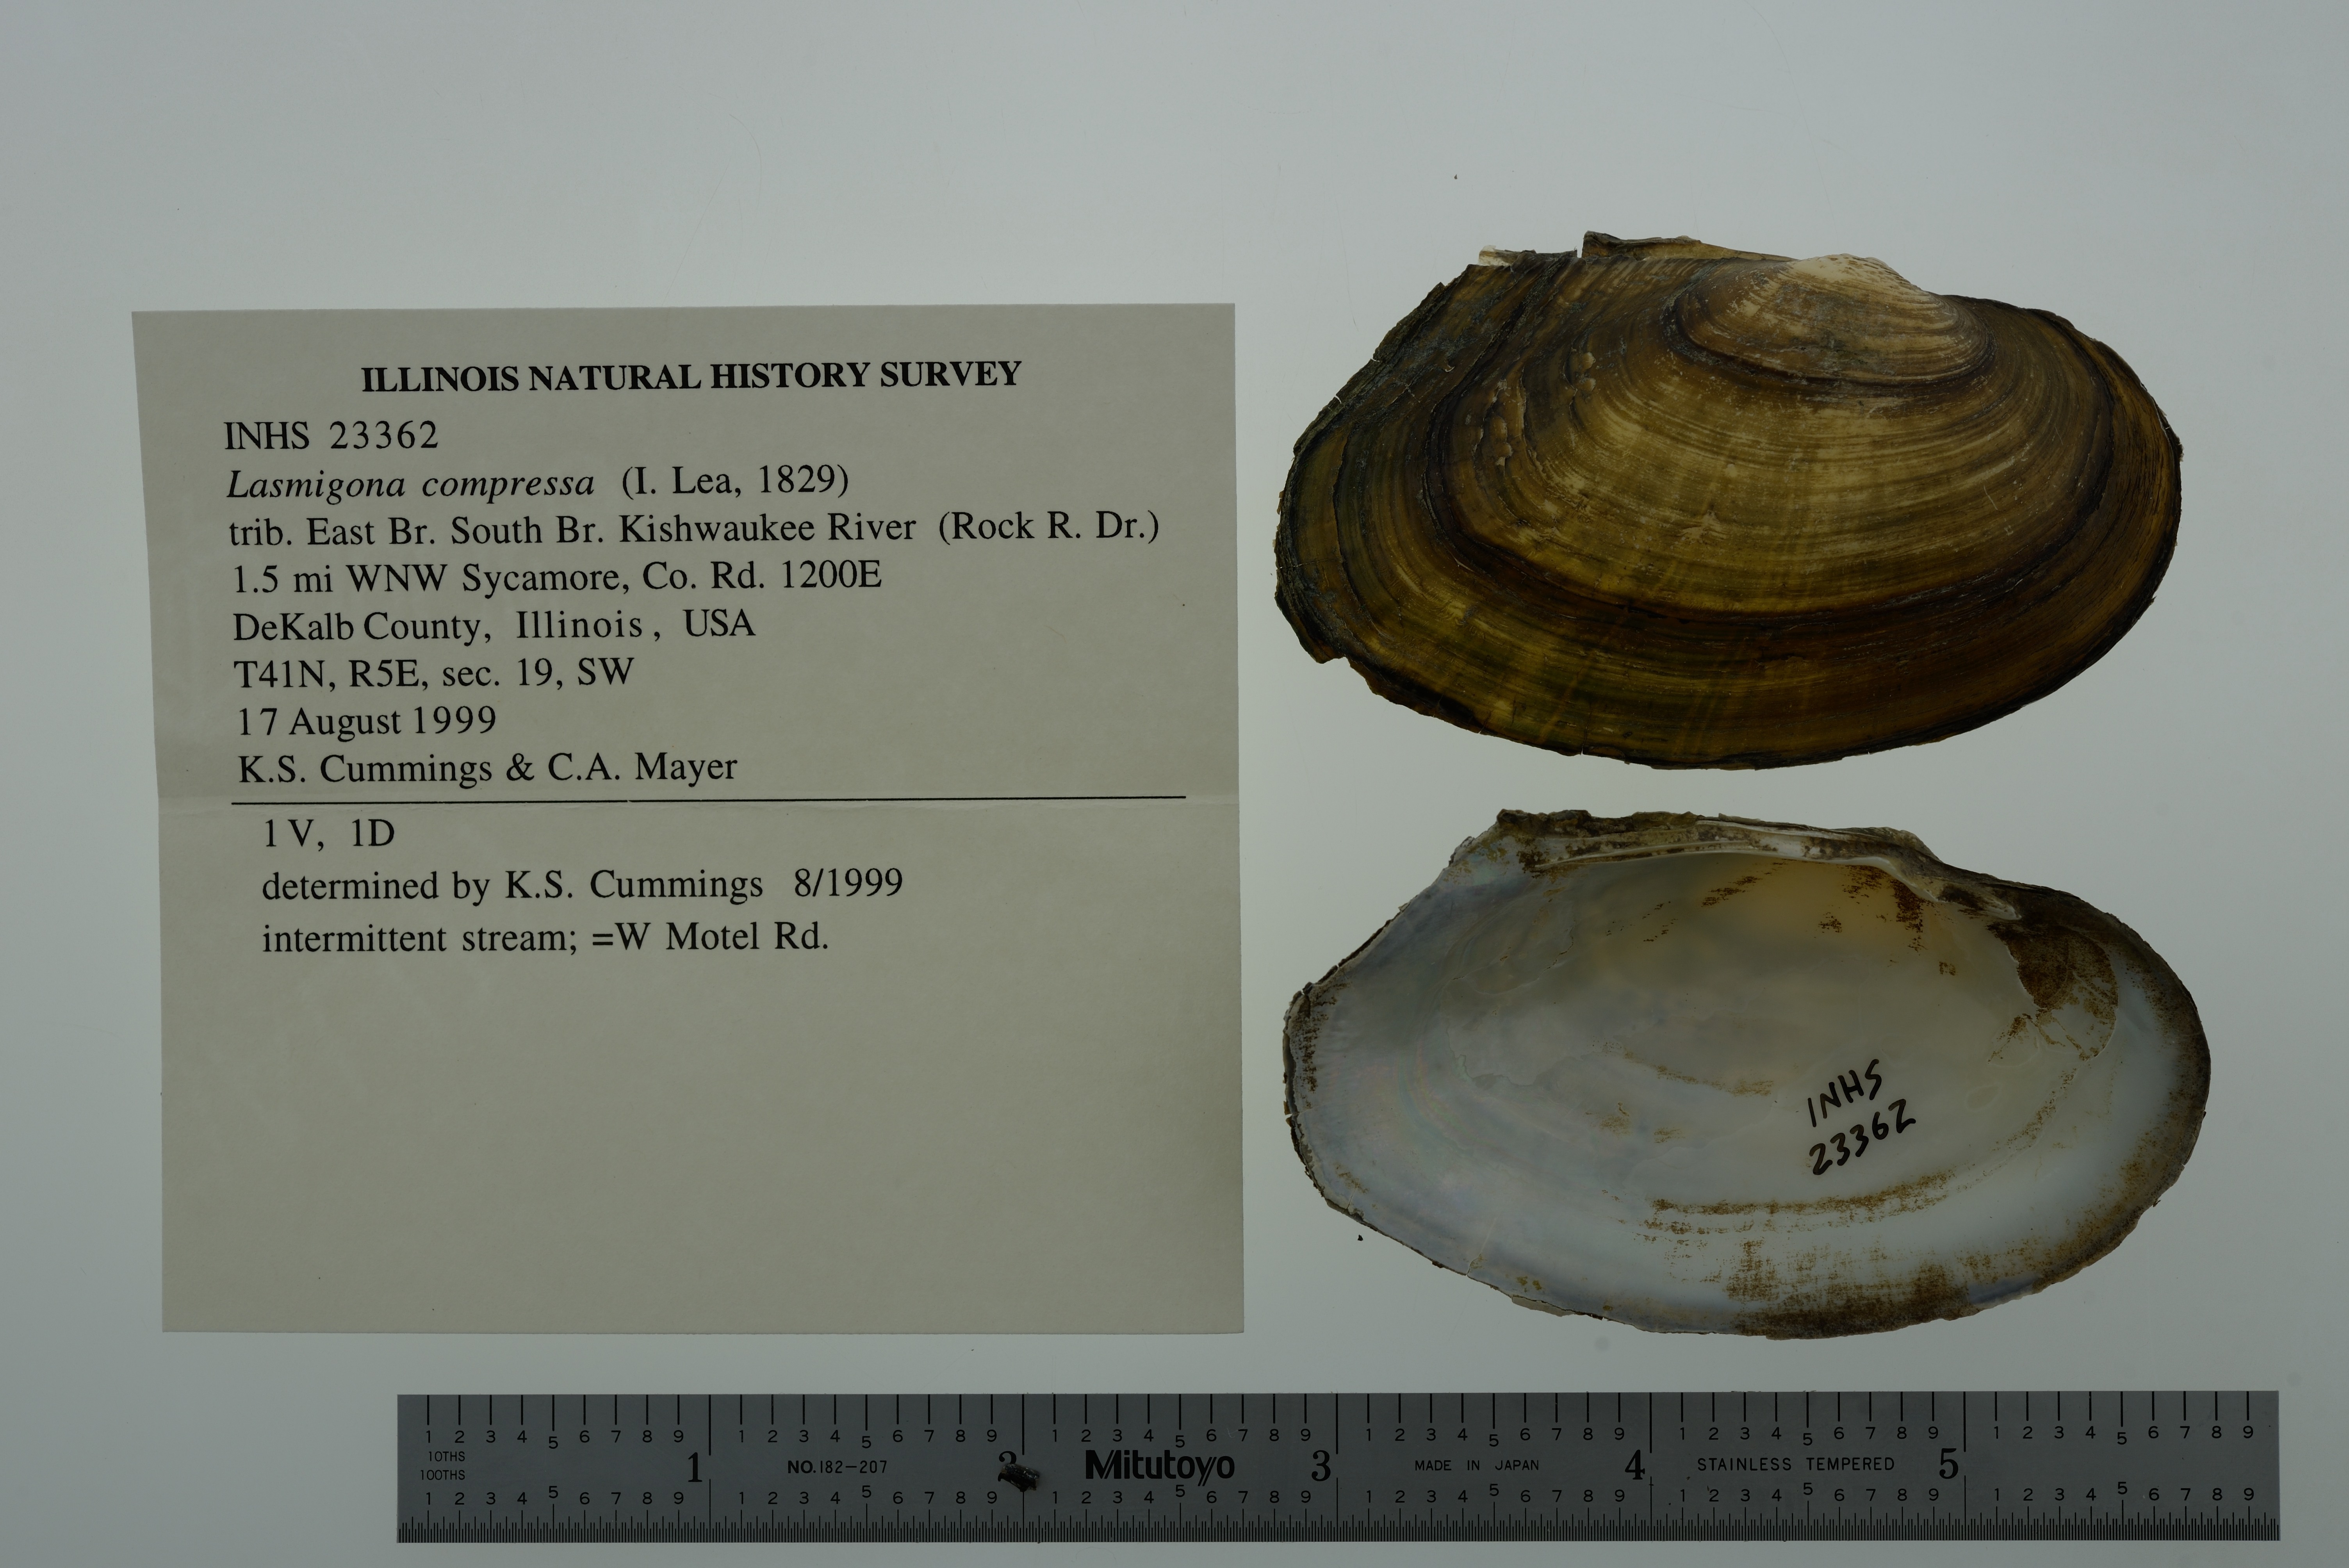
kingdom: Animalia
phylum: Mollusca
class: Bivalvia
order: Unionida
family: Unionidae
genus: Lasmigona
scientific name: Lasmigona compressa
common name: Creek heelsplitter
